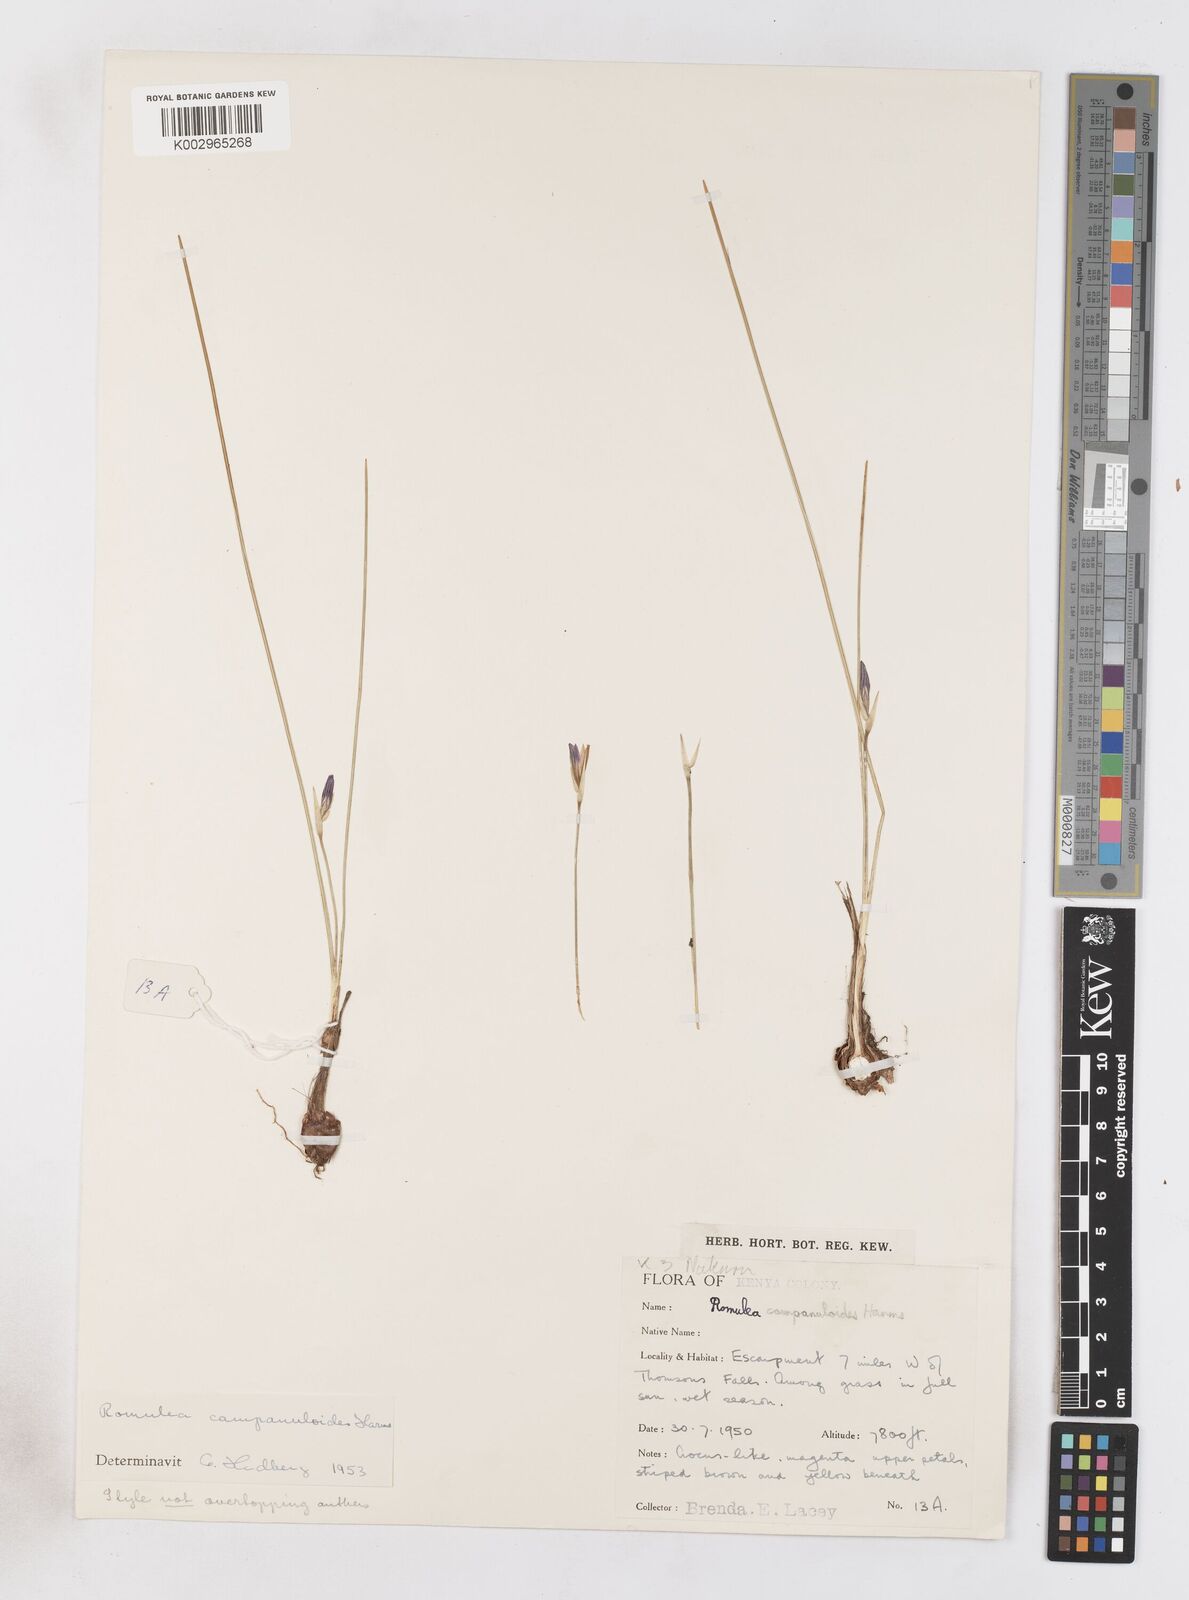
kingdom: Plantae
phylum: Tracheophyta
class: Liliopsida
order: Asparagales
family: Iridaceae
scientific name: Iridaceae
